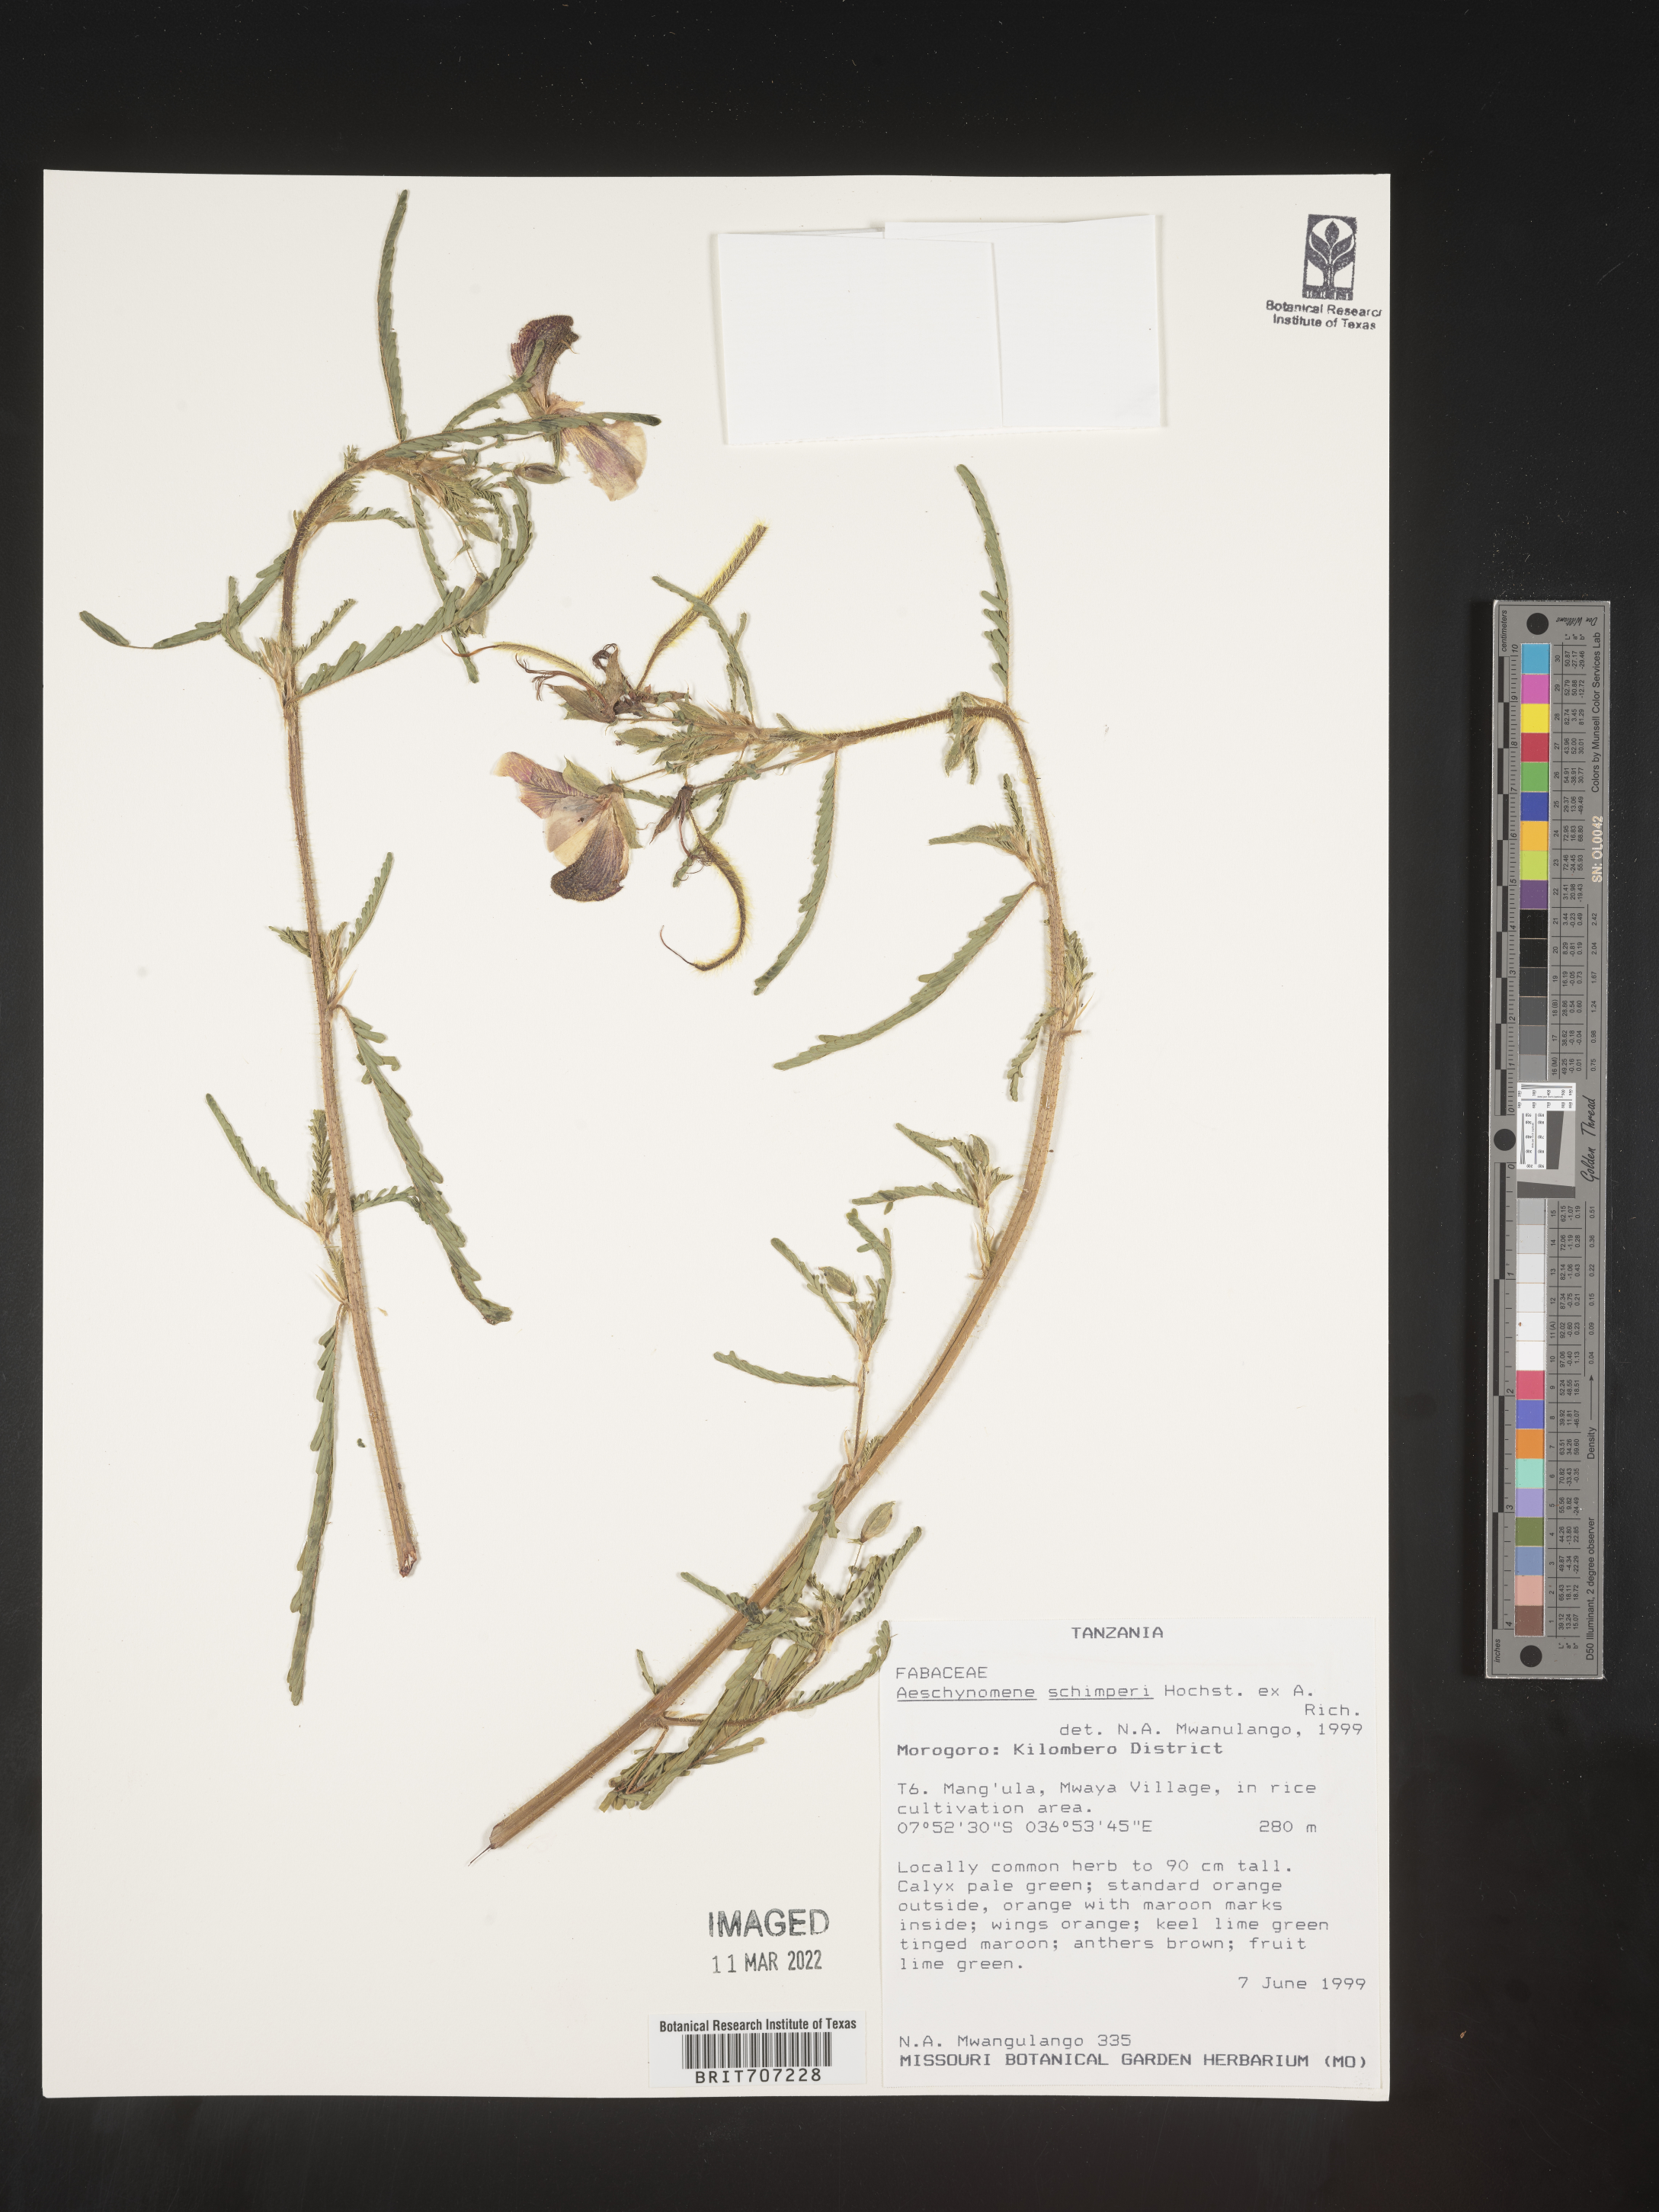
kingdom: Plantae
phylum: Tracheophyta
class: Magnoliopsida
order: Fabales
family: Fabaceae
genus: Aeschynomene
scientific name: Aeschynomene
